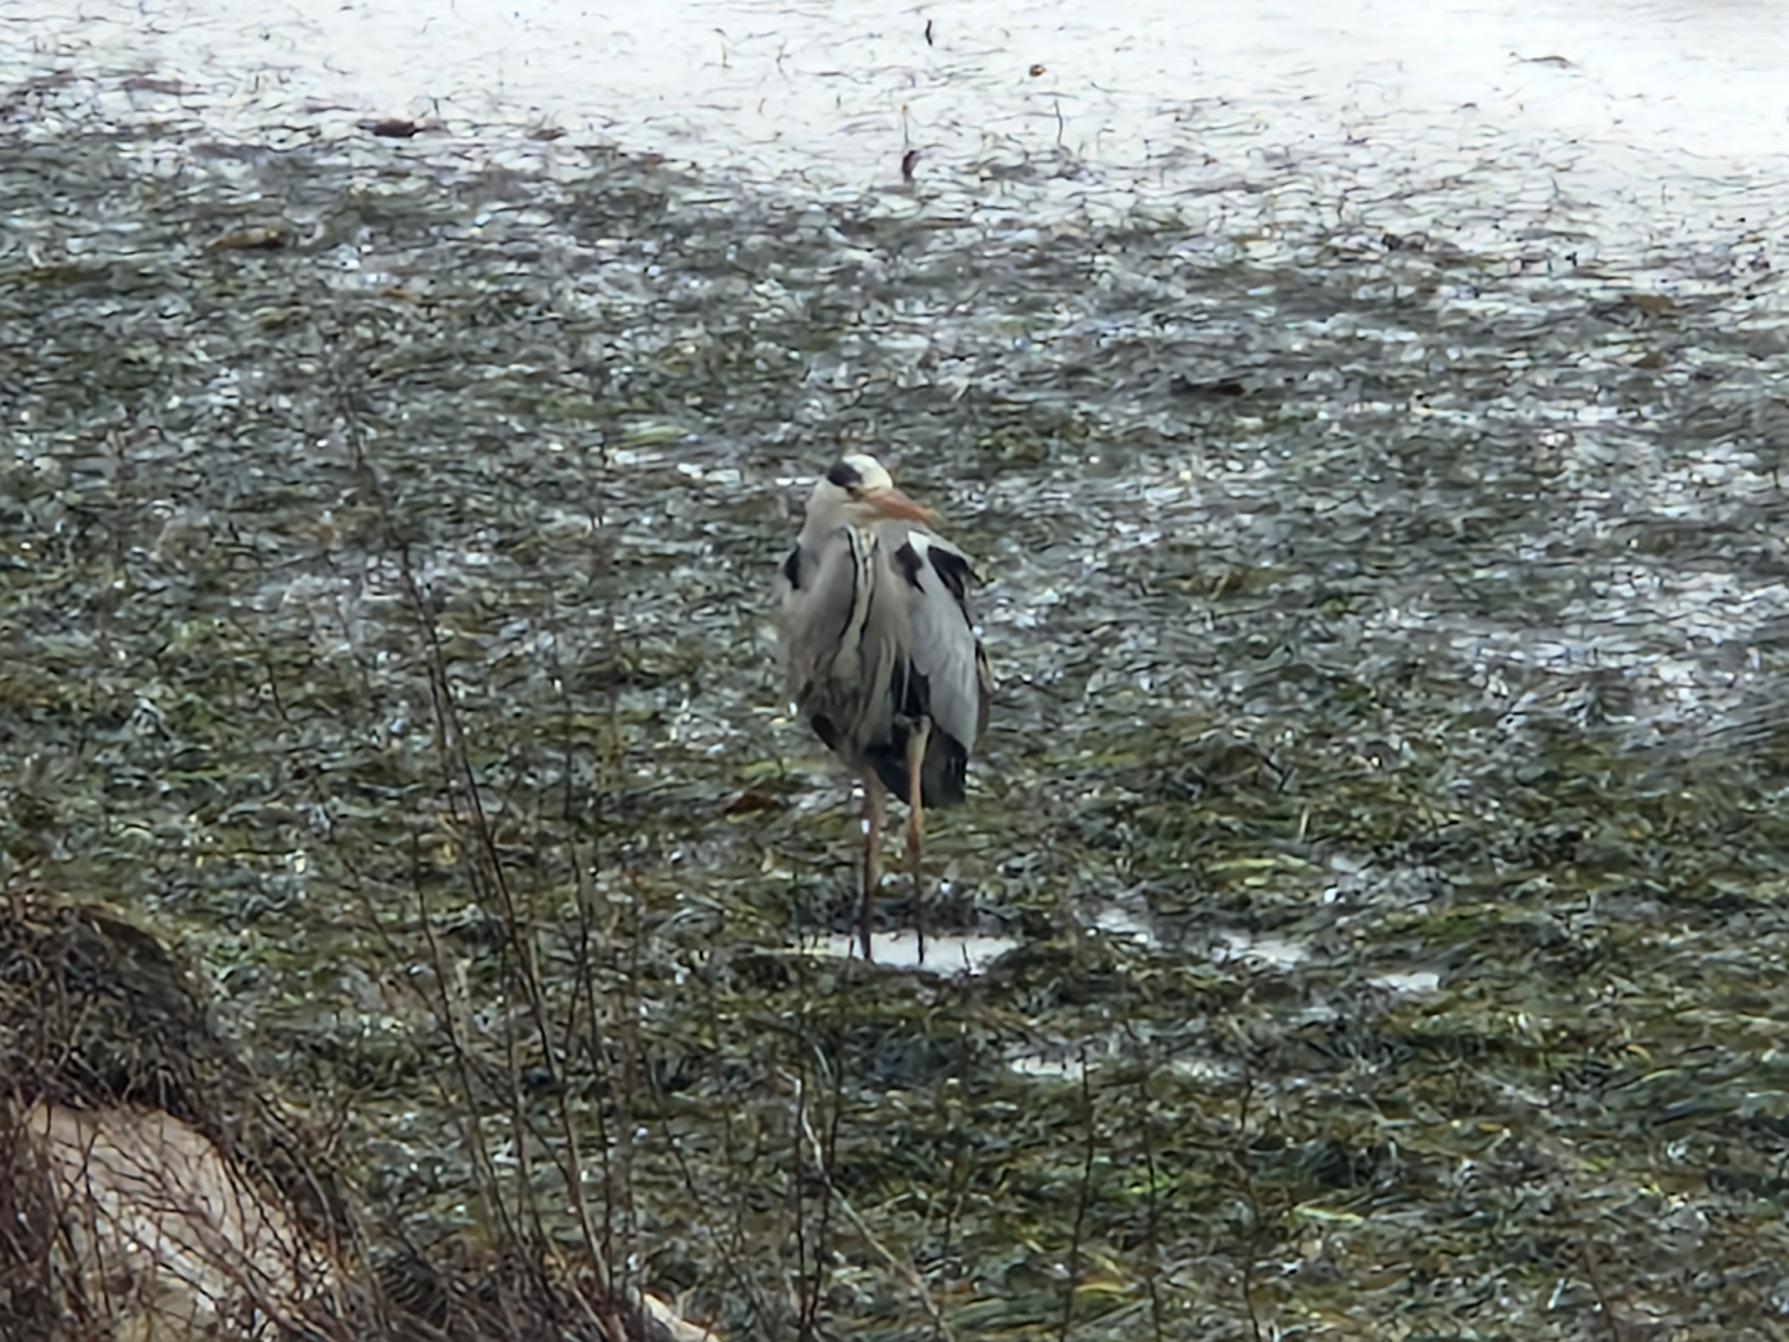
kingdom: Animalia
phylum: Chordata
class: Aves
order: Pelecaniformes
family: Ardeidae
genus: Ardea
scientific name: Ardea cinerea
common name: Fiskehejre
